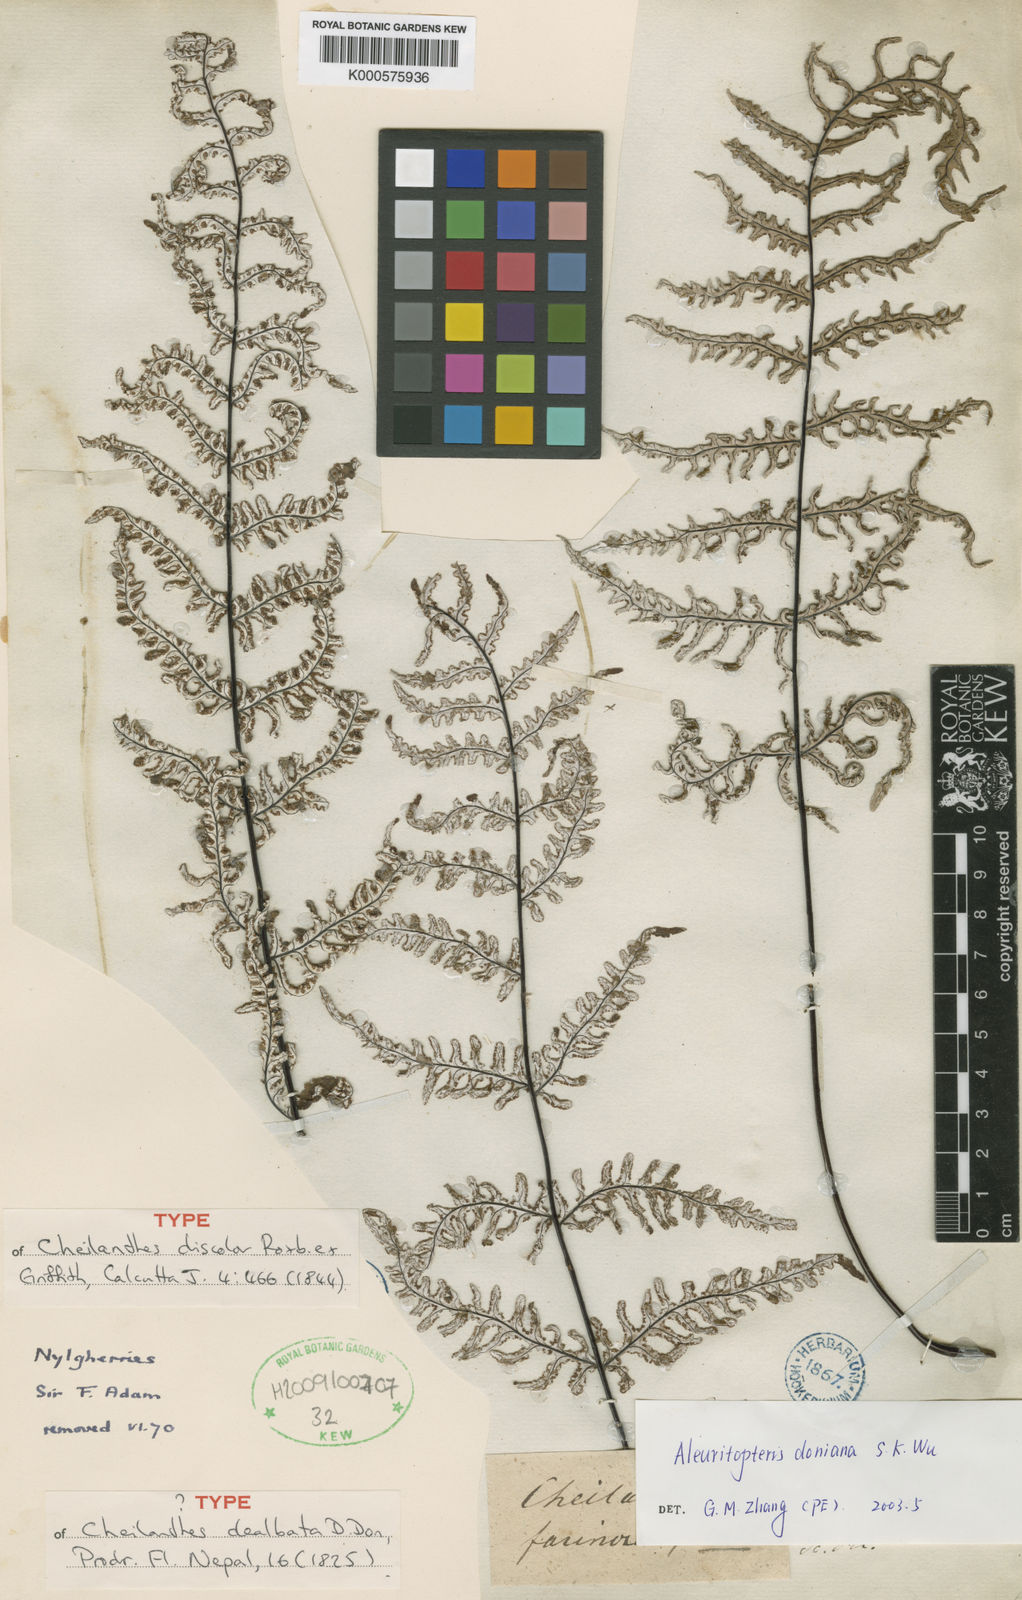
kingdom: Plantae
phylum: Tracheophyta
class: Polypodiopsida
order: Polypodiales
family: Pteridaceae
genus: Aleuritopteris
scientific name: Aleuritopteris dealbata
